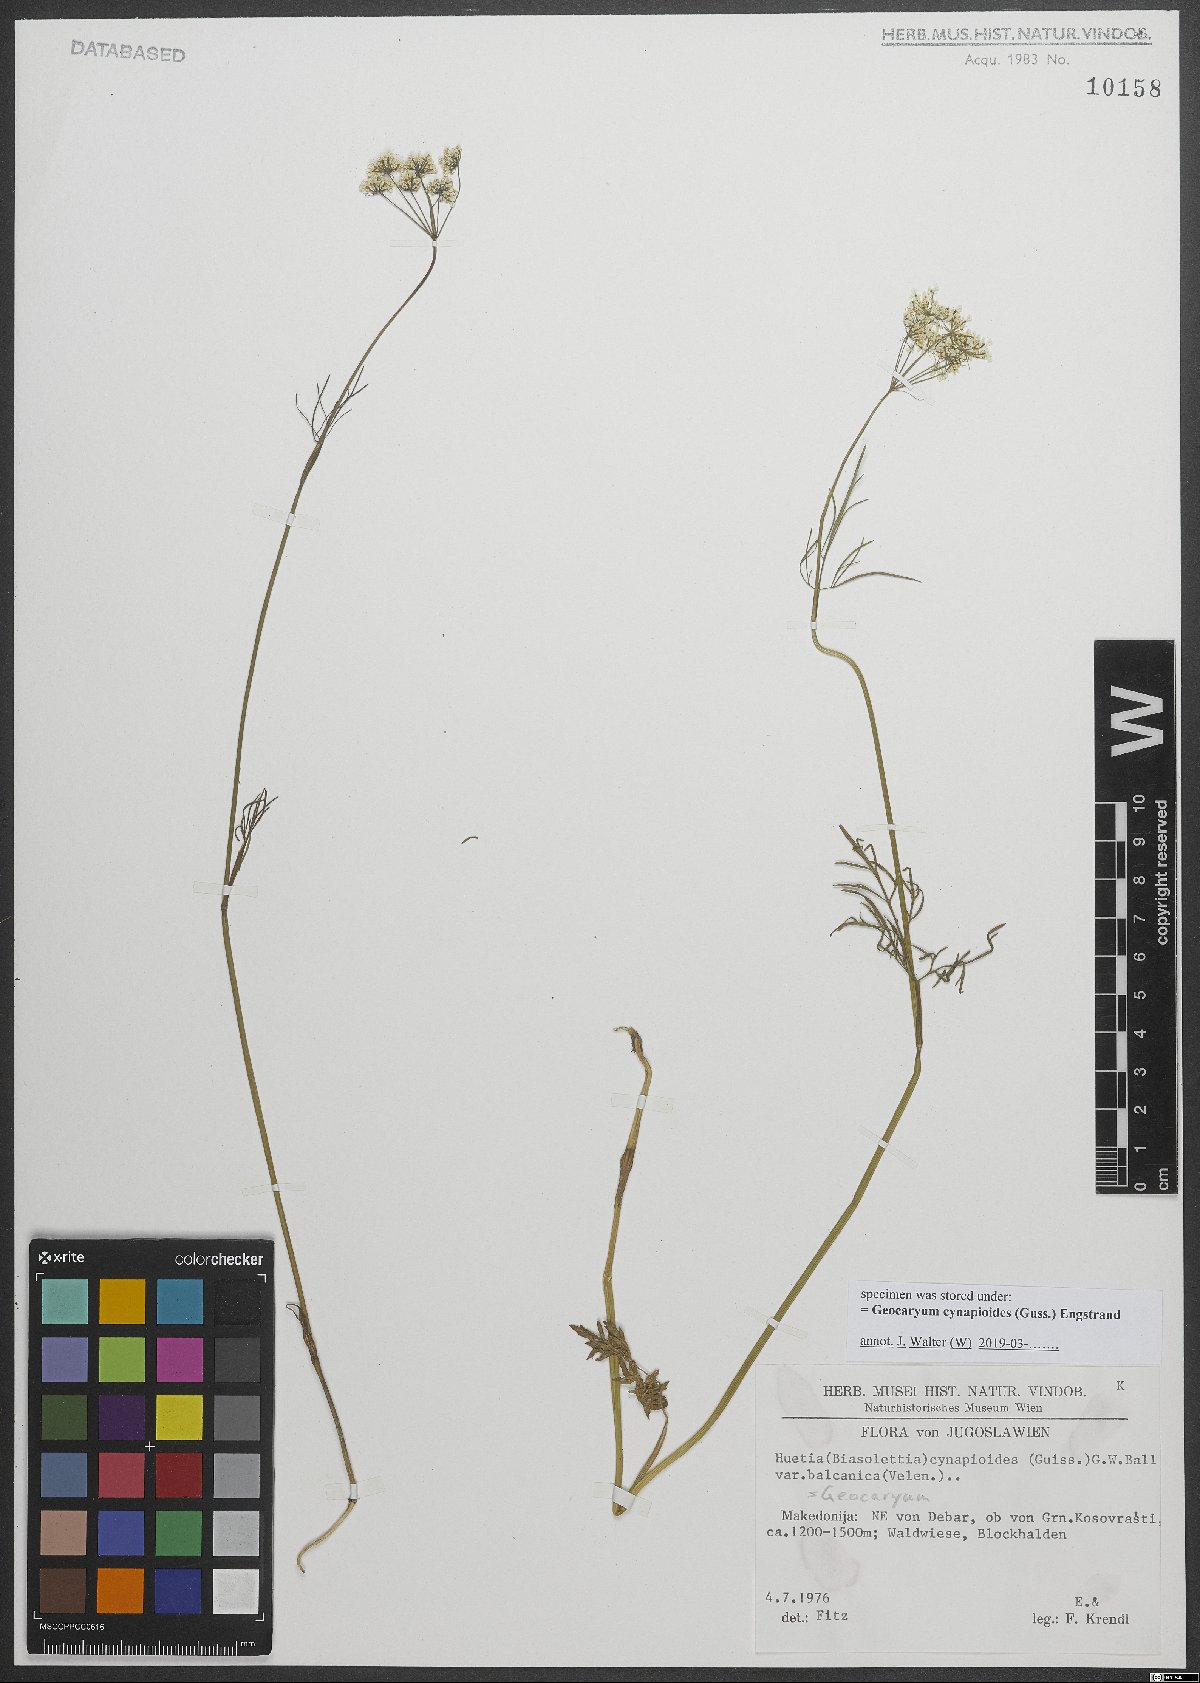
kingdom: Plantae
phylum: Tracheophyta
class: Magnoliopsida
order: Apiales
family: Apiaceae
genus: Geocaryum
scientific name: Geocaryum cynapioides
